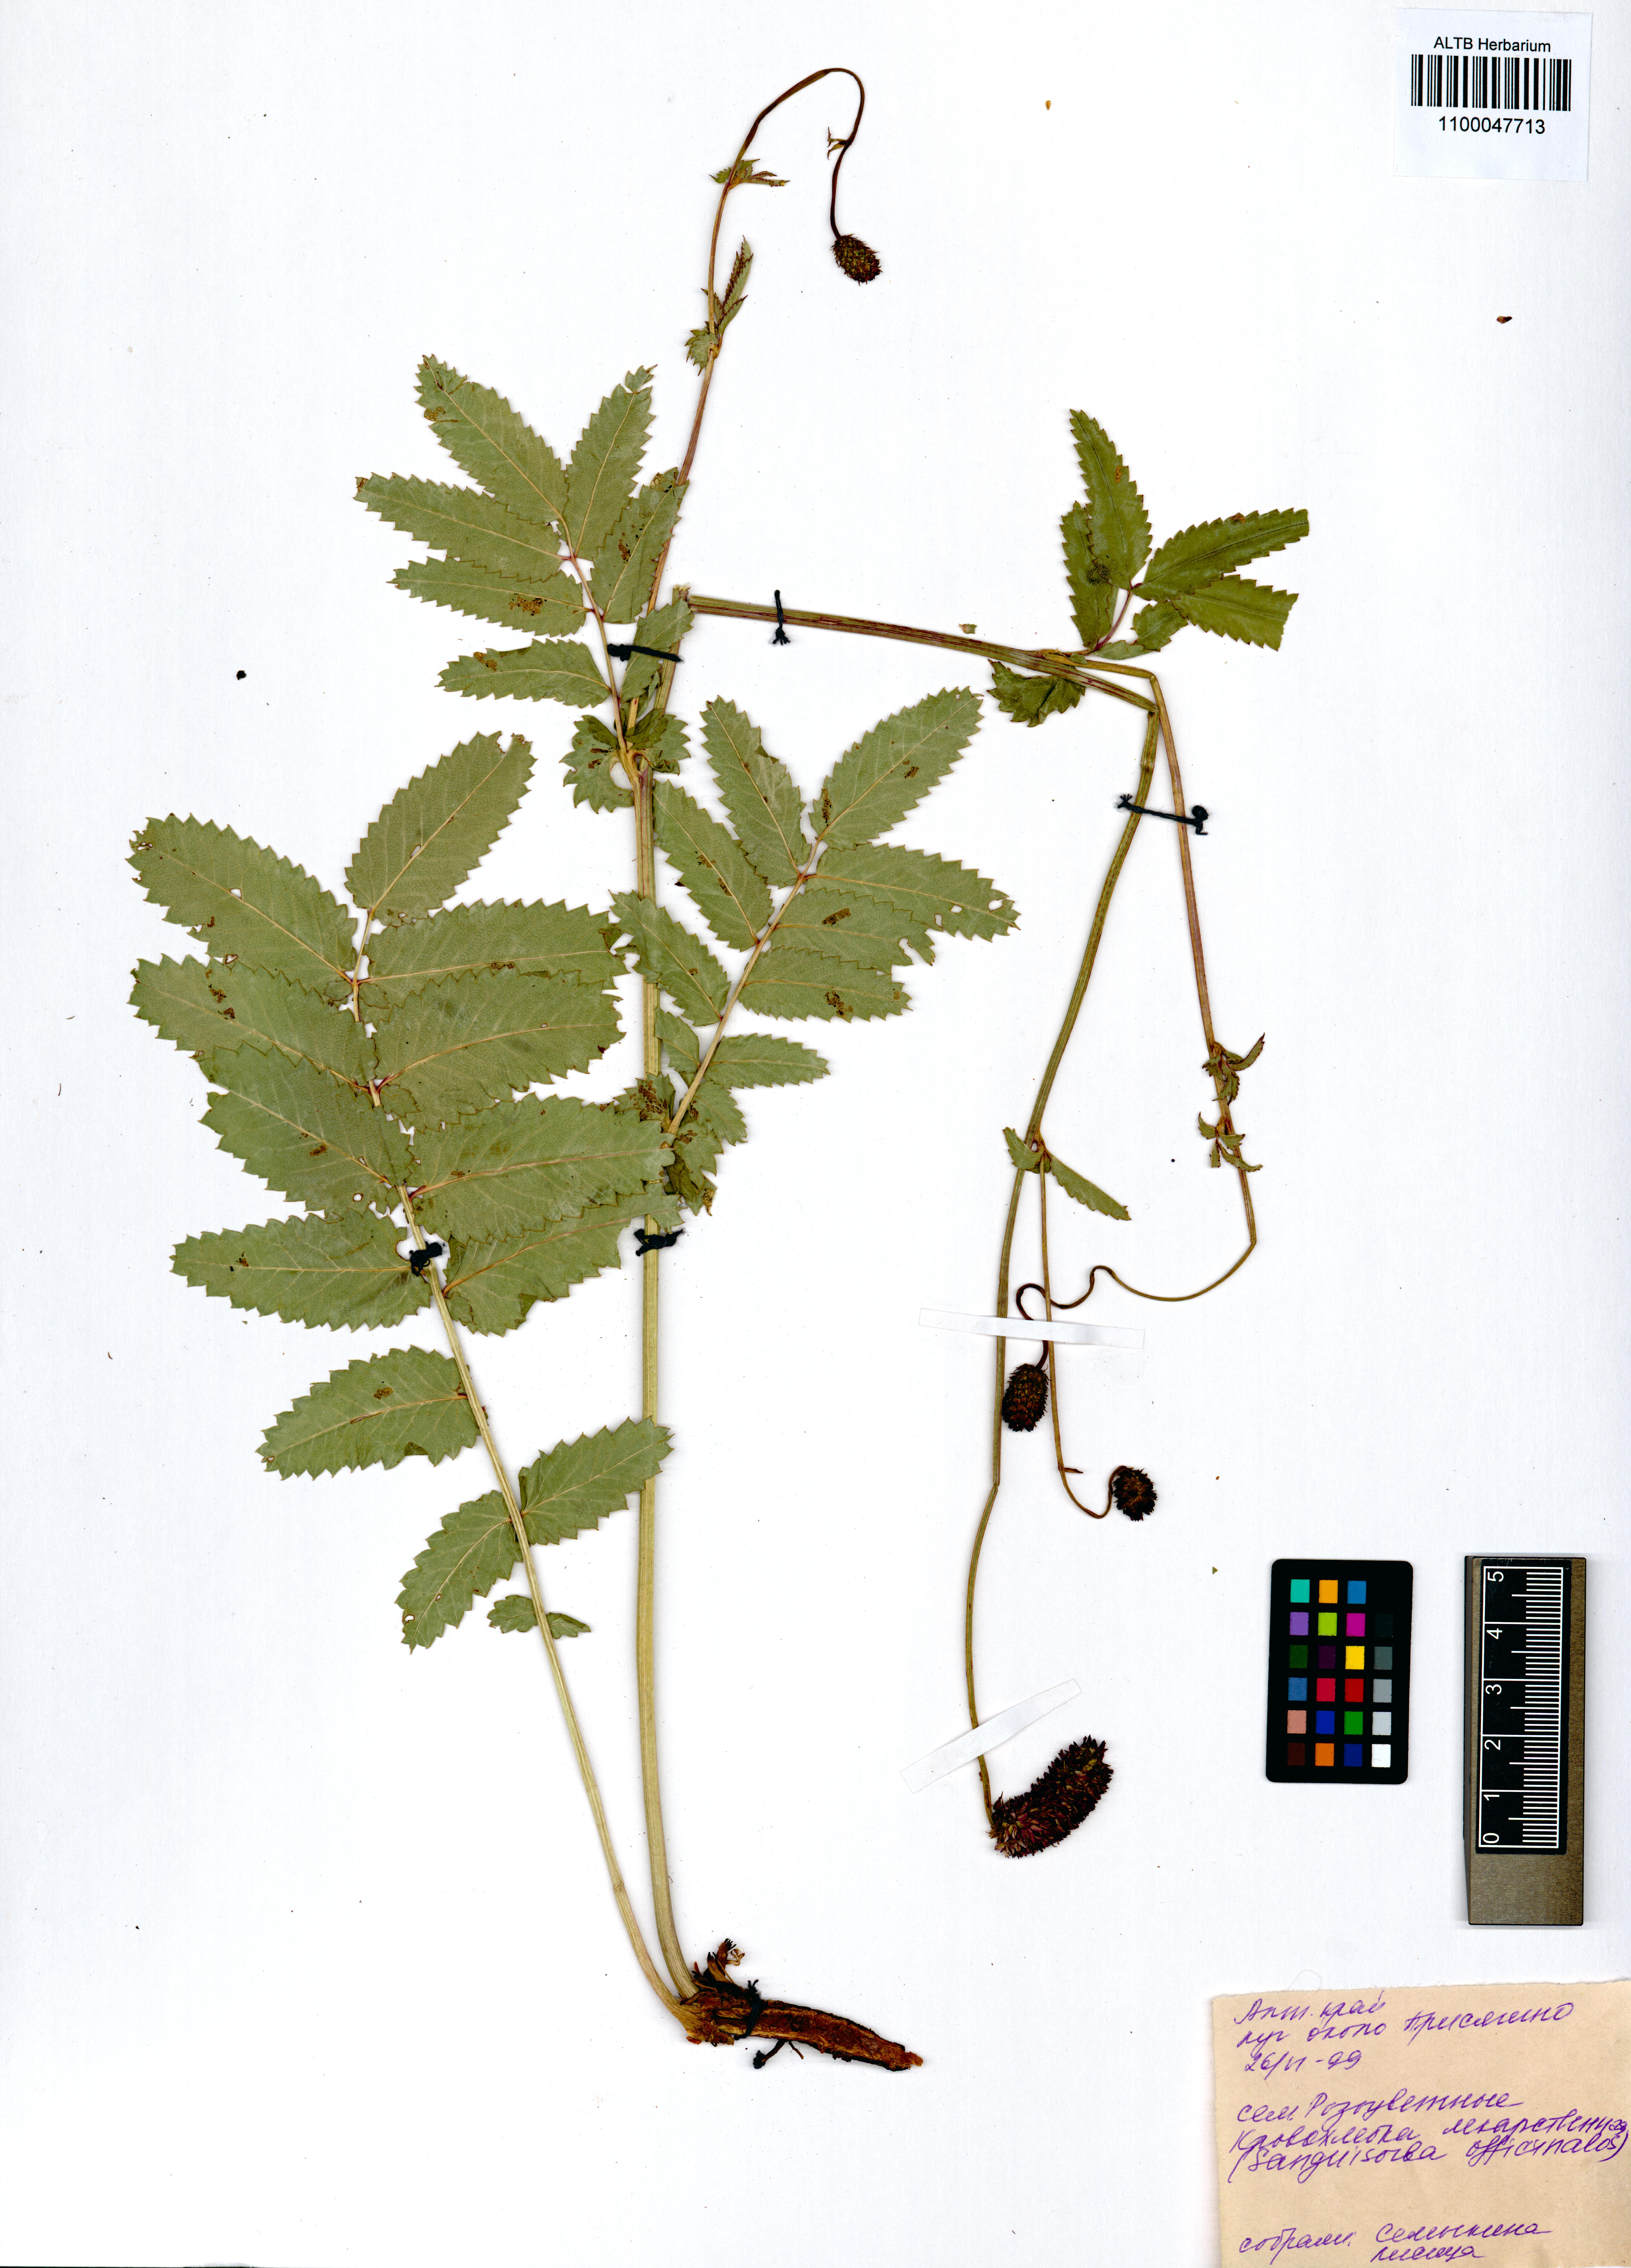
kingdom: Plantae
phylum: Tracheophyta
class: Magnoliopsida
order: Rosales
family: Rosaceae
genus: Sanguisorba
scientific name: Sanguisorba officinalis
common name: Great burnet
